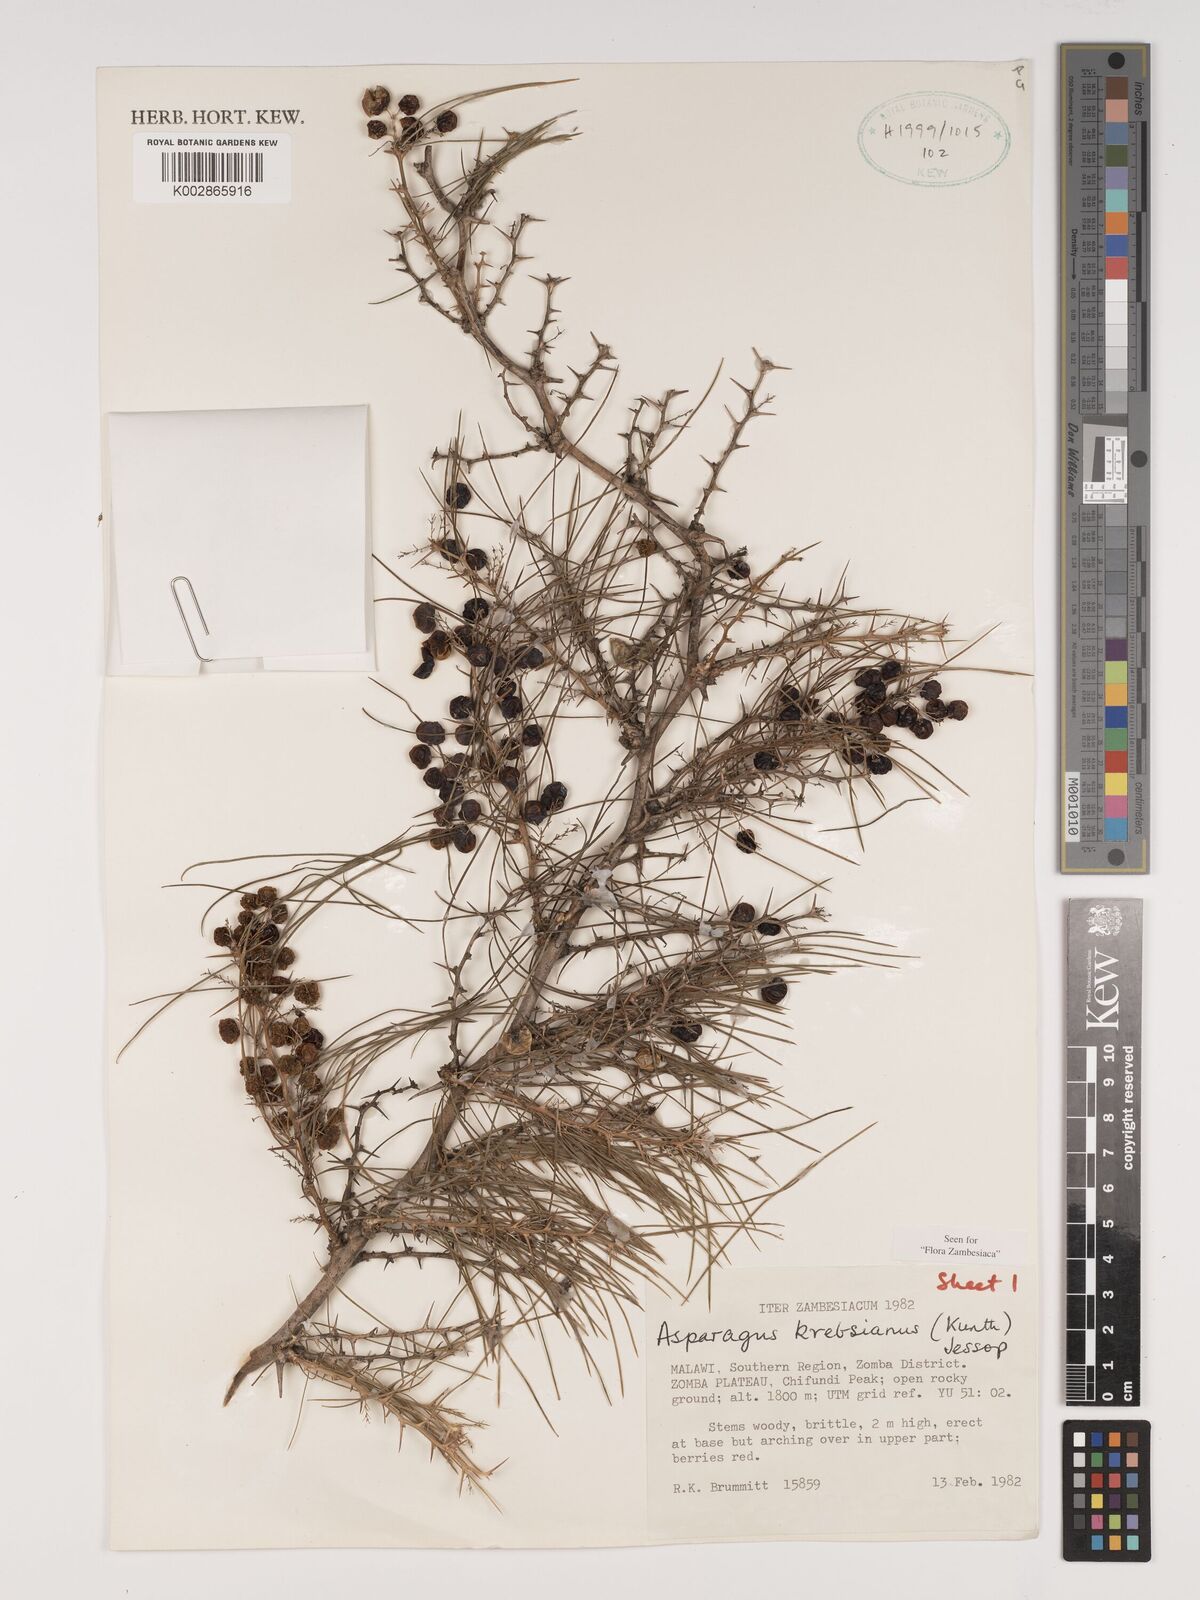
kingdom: Plantae
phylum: Tracheophyta
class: Liliopsida
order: Asparagales
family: Asparagaceae
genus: Asparagus
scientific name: Asparagus krebsianus
